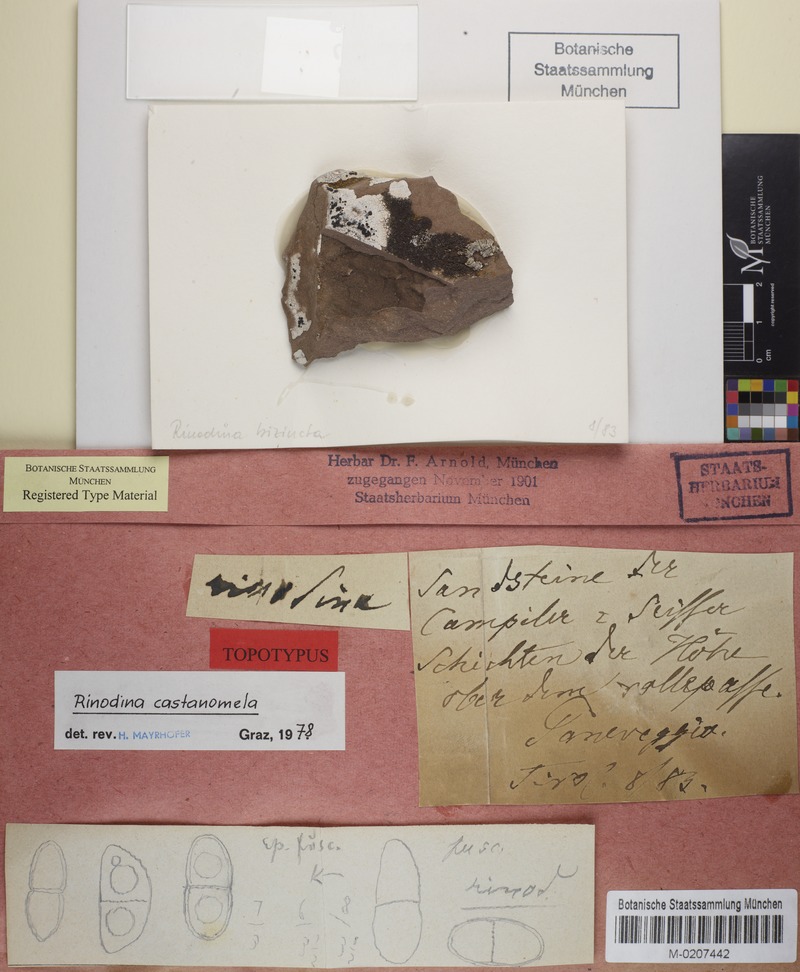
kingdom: Fungi
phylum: Ascomycota
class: Lecanoromycetes
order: Caliciales
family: Physciaceae
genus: Rinodina
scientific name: Rinodina castanomela
